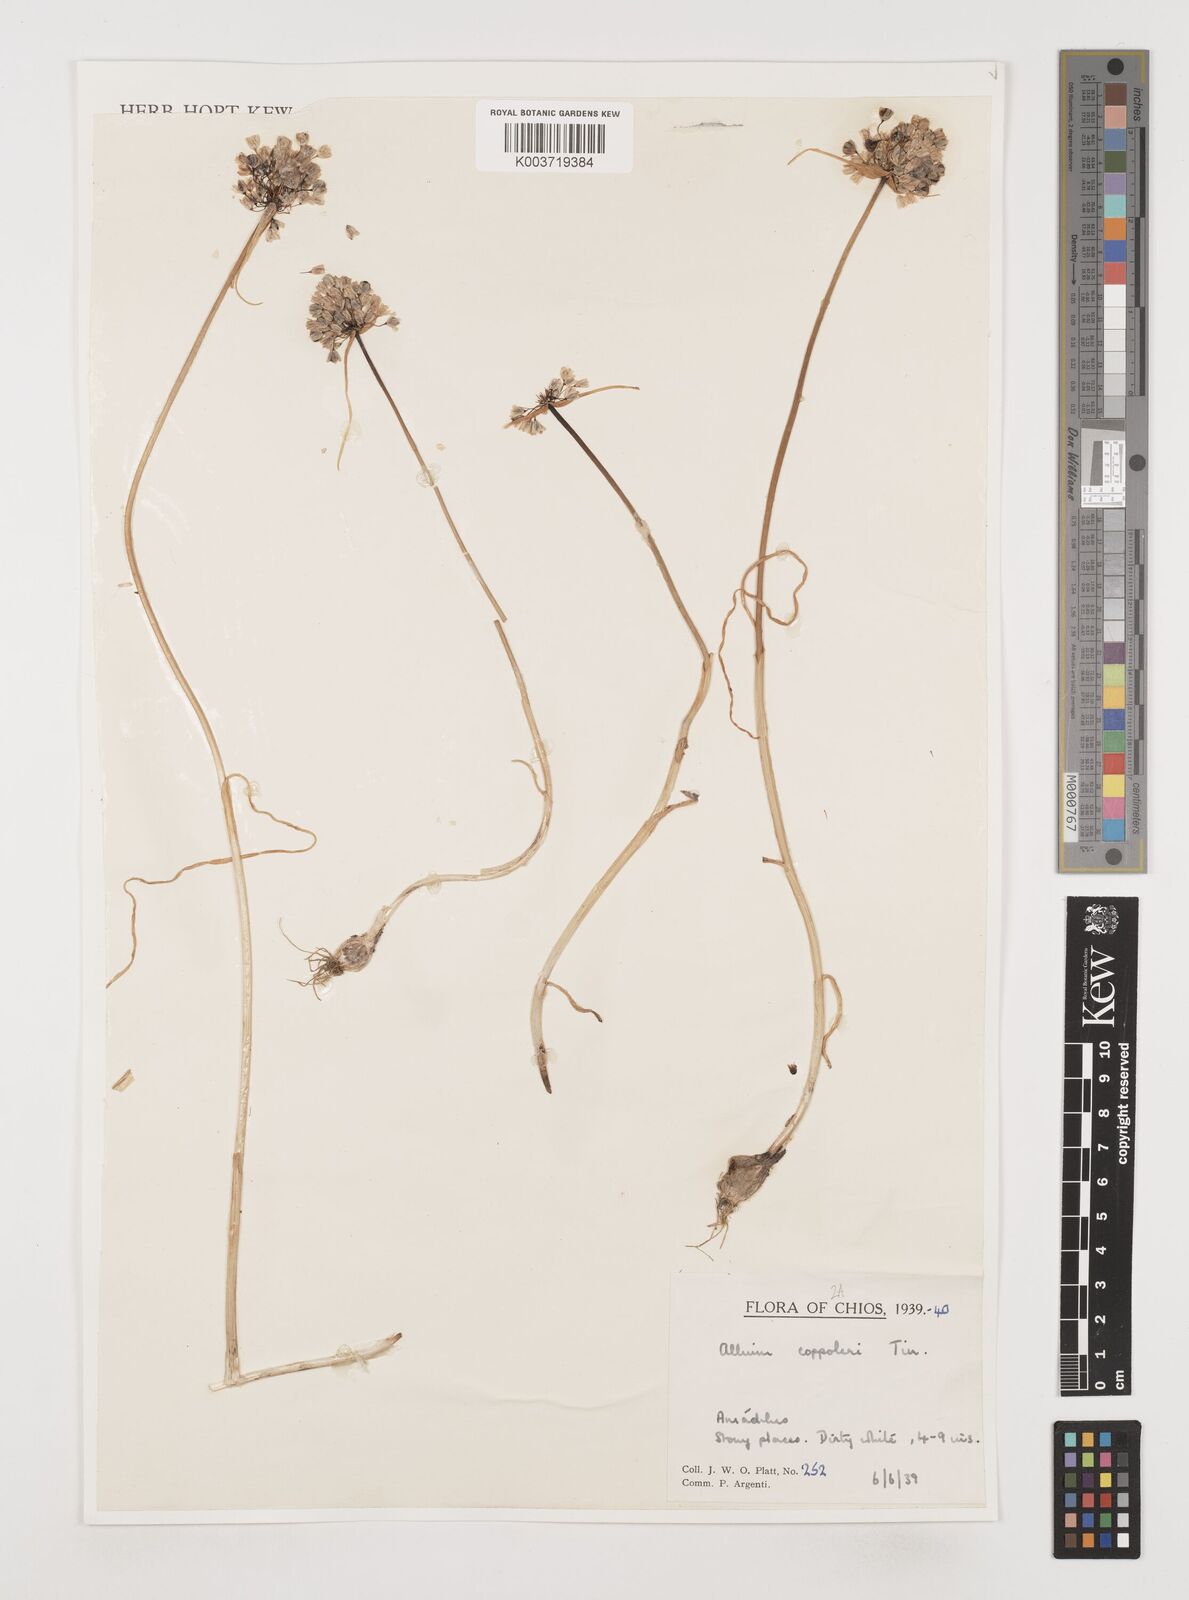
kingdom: Plantae
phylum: Tracheophyta
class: Liliopsida
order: Asparagales
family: Amaryllidaceae
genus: Allium
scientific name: Allium coppoleri
